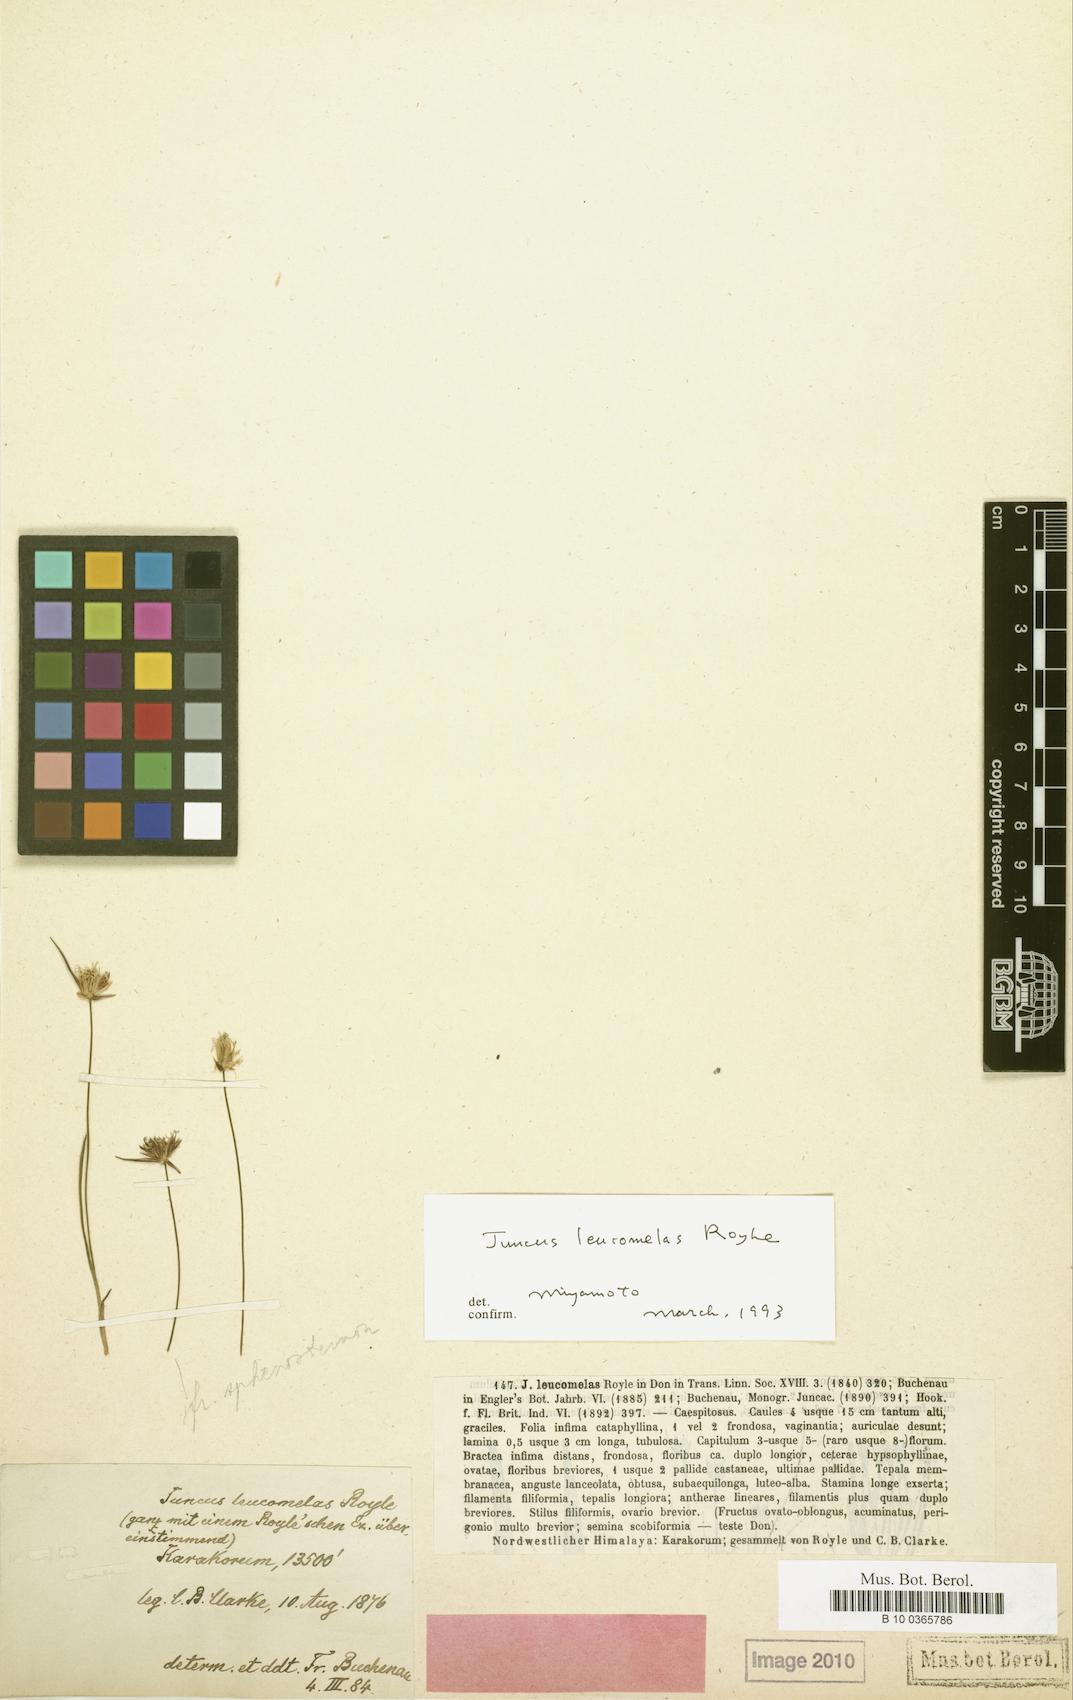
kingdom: Plantae
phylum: Tracheophyta
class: Liliopsida
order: Poales
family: Juncaceae
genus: Juncus
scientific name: Juncus leucomelas
